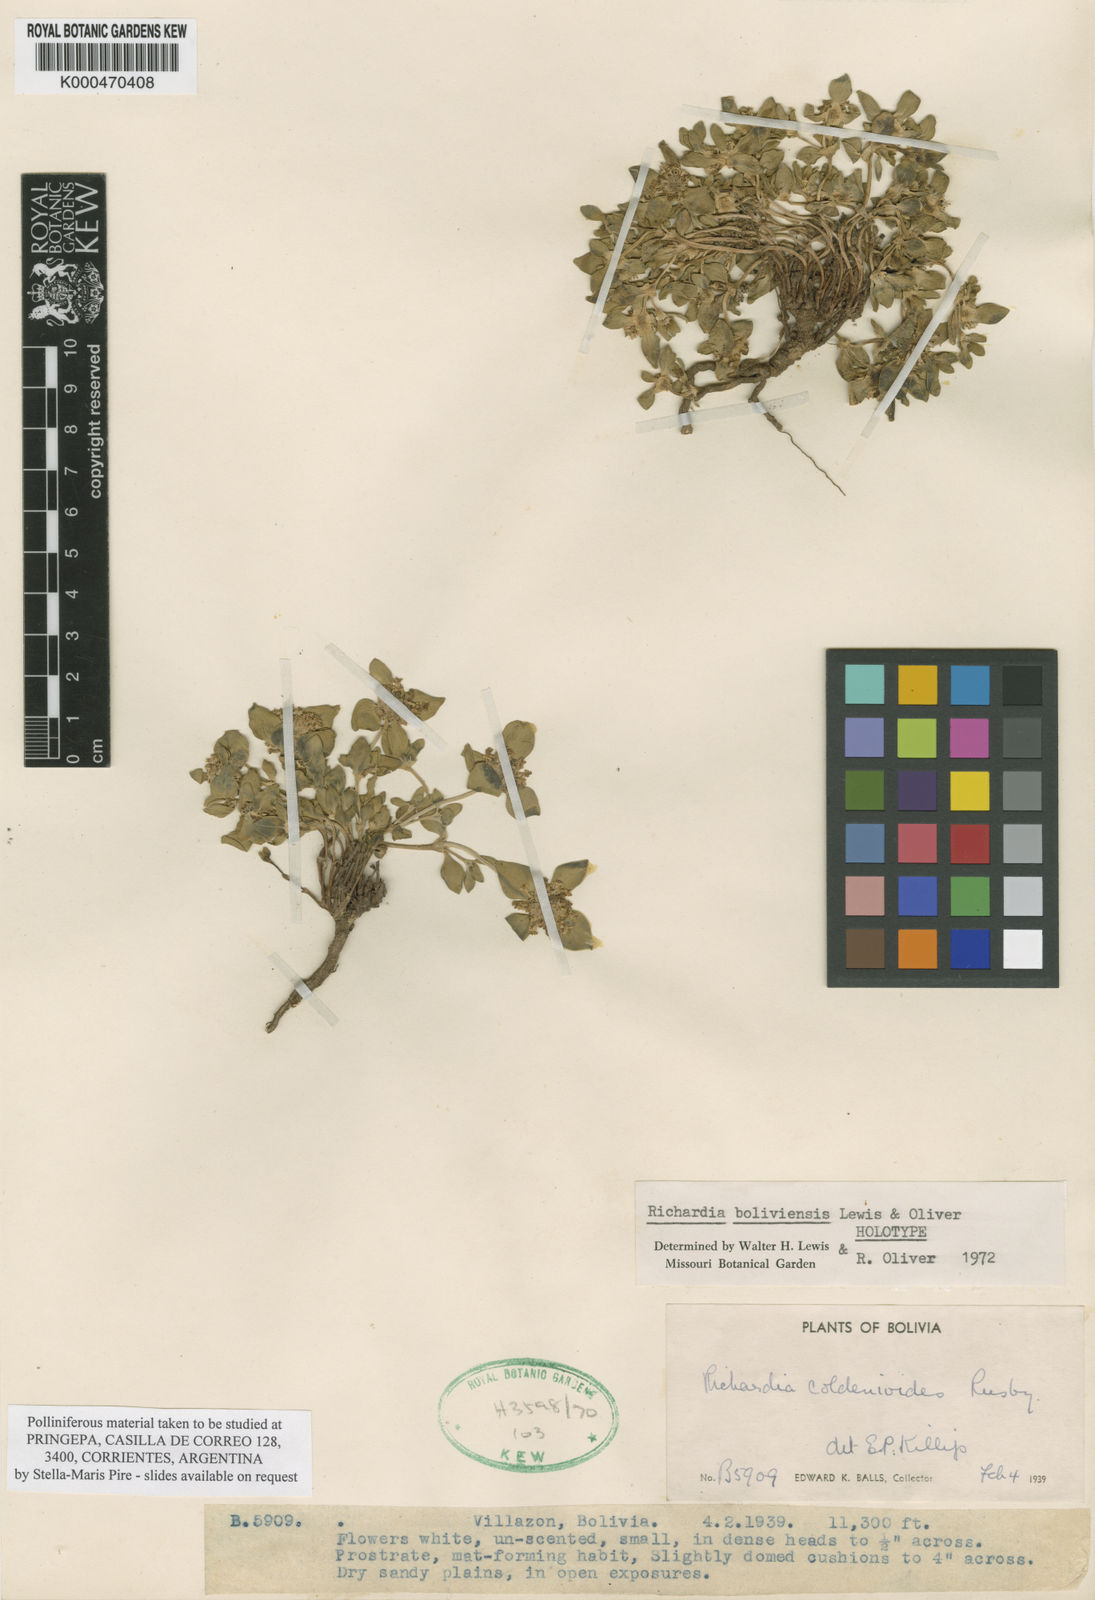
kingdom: Plantae
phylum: Tracheophyta
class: Magnoliopsida
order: Gentianales
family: Rubiaceae
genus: Richardia
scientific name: Richardia boliviensis
